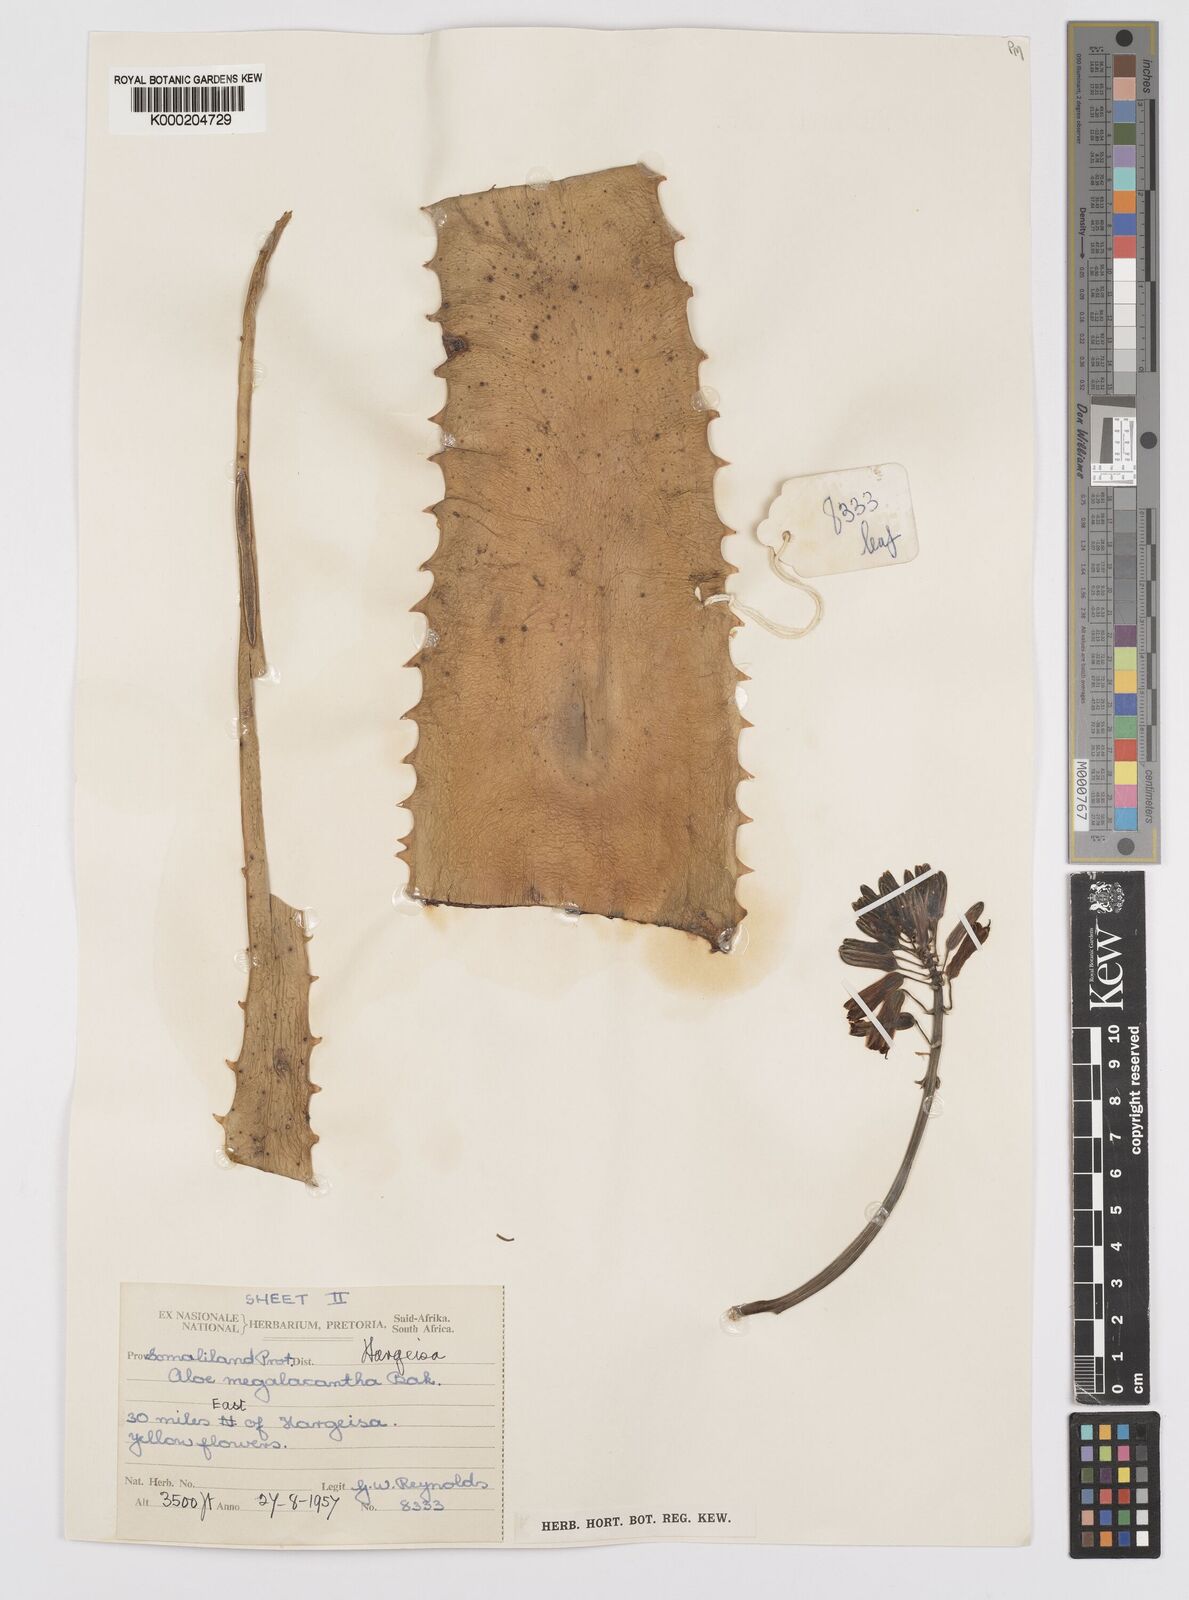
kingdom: Plantae
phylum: Tracheophyta
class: Liliopsida
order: Asparagales
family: Asphodelaceae
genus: Aloe
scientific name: Aloe megalacantha
